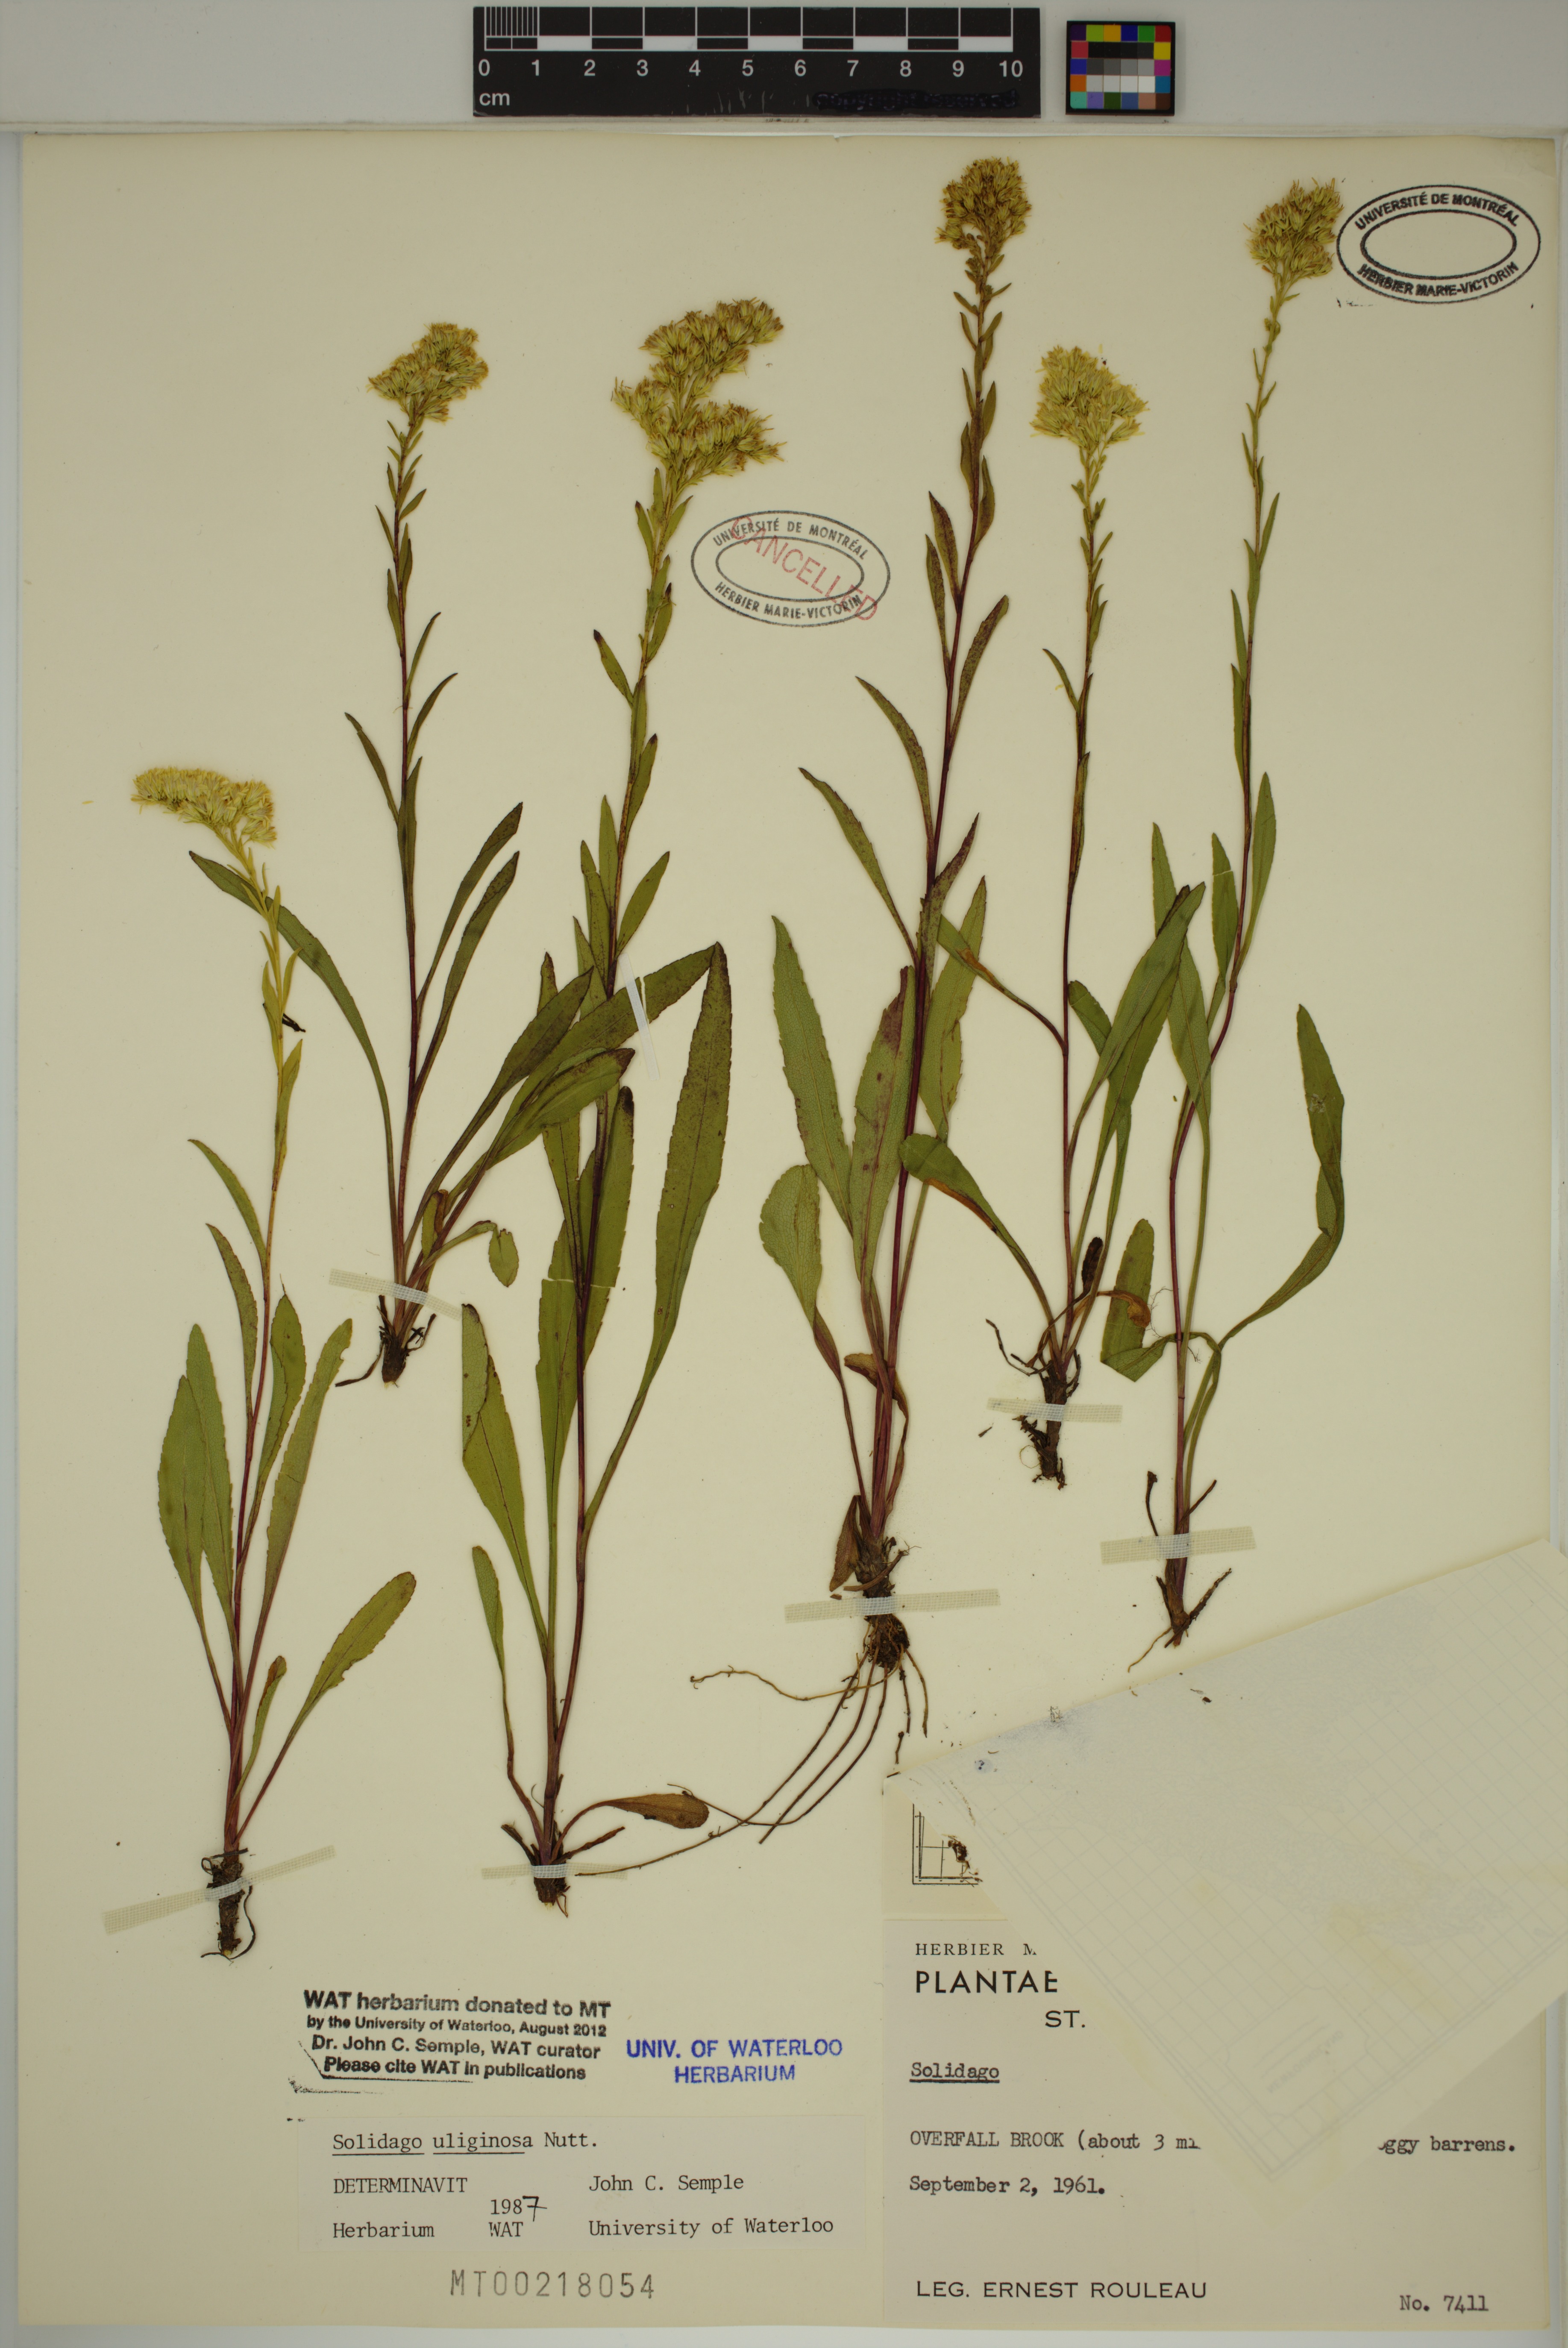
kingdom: Plantae
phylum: Tracheophyta
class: Magnoliopsida
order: Asterales
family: Asteraceae
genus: Solidago
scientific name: Solidago uliginosa
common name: Bog goldenrod
